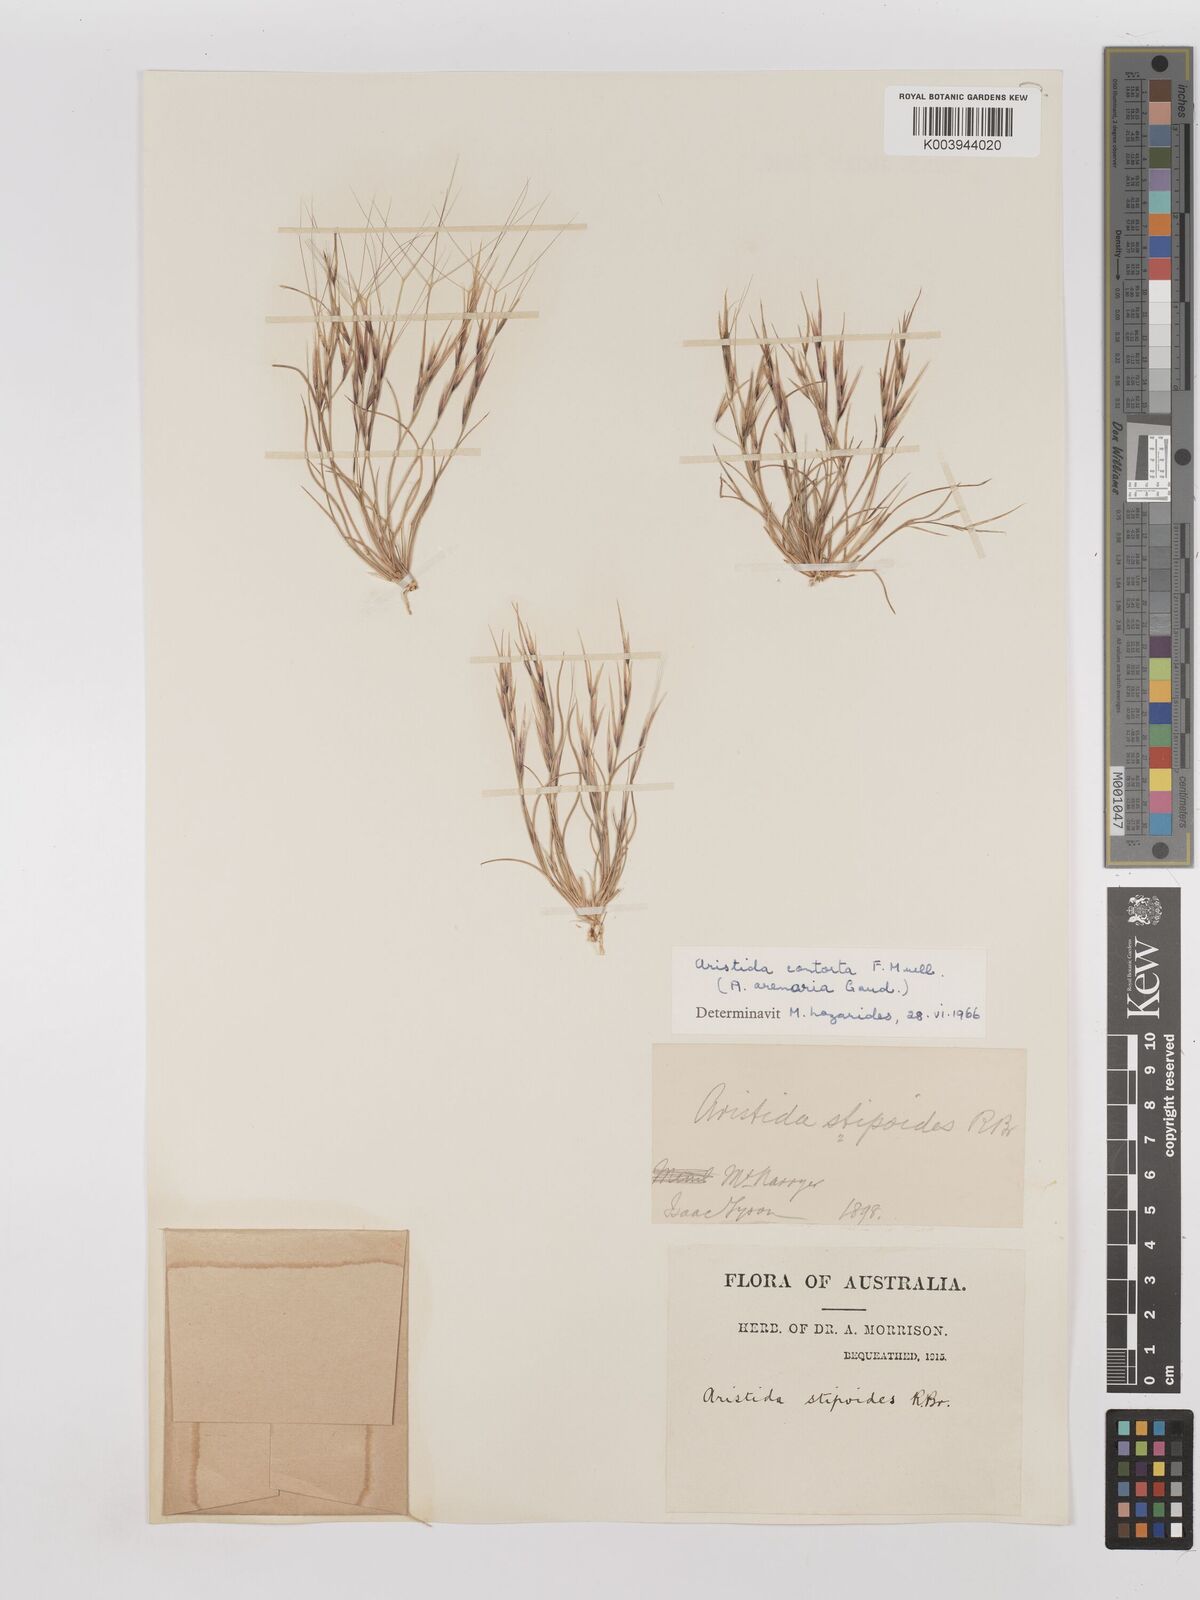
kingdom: Plantae
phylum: Tracheophyta
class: Liliopsida
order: Poales
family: Poaceae
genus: Aristida
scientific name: Aristida contorta
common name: Bunch kerosene grass
